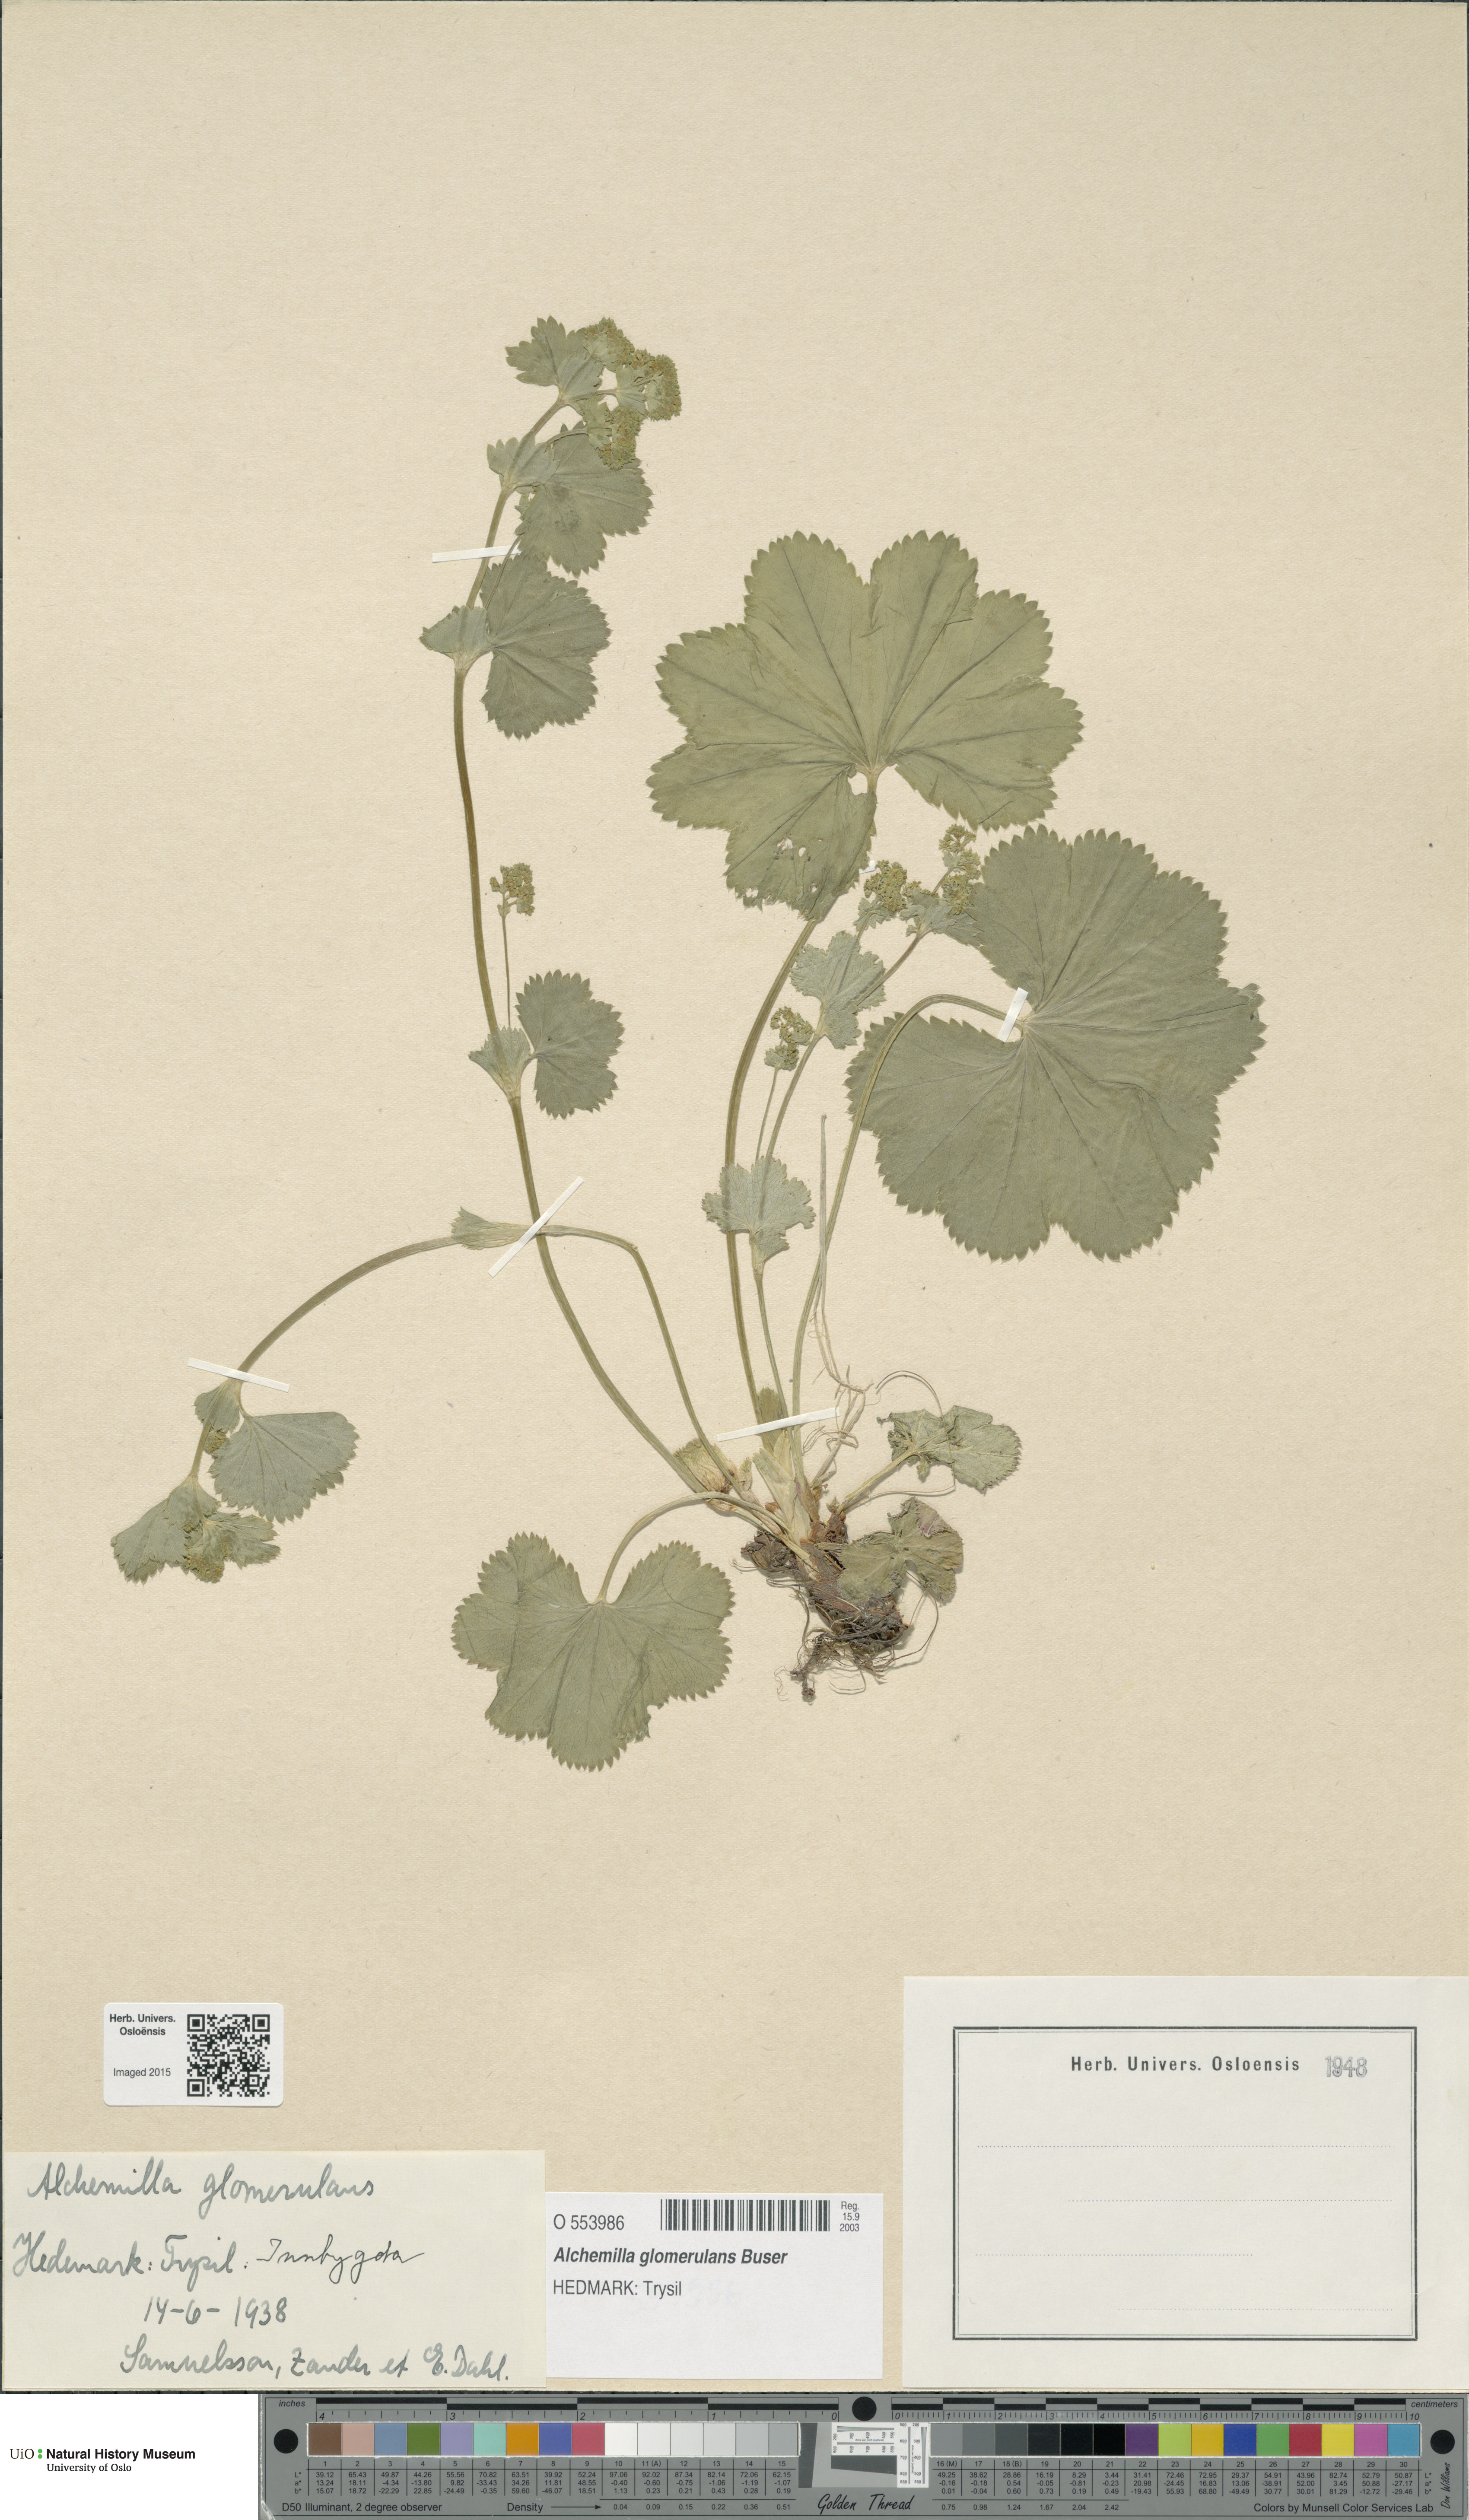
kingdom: Plantae
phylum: Tracheophyta
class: Magnoliopsida
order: Rosales
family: Rosaceae
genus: Alchemilla
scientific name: Alchemilla glomerulans
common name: Clustered lady's mantle
